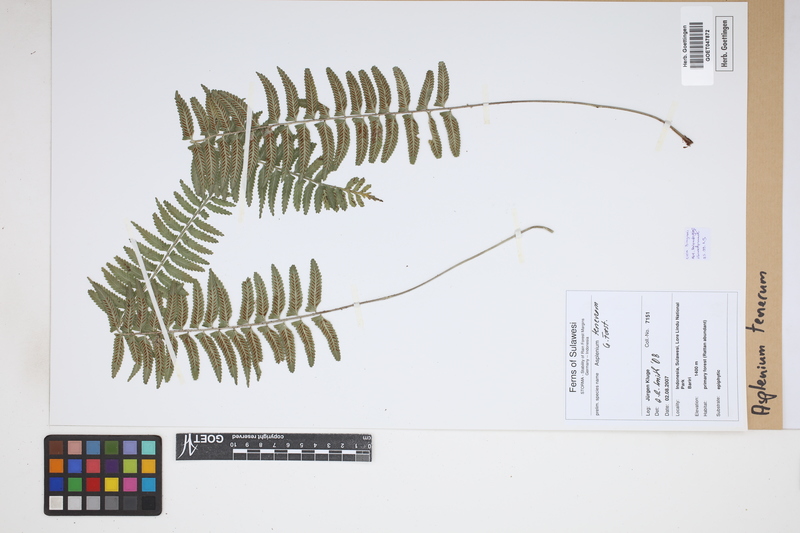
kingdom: Plantae
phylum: Tracheophyta
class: Polypodiopsida
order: Polypodiales
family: Aspleniaceae
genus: Asplenium
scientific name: Asplenium tenerum
